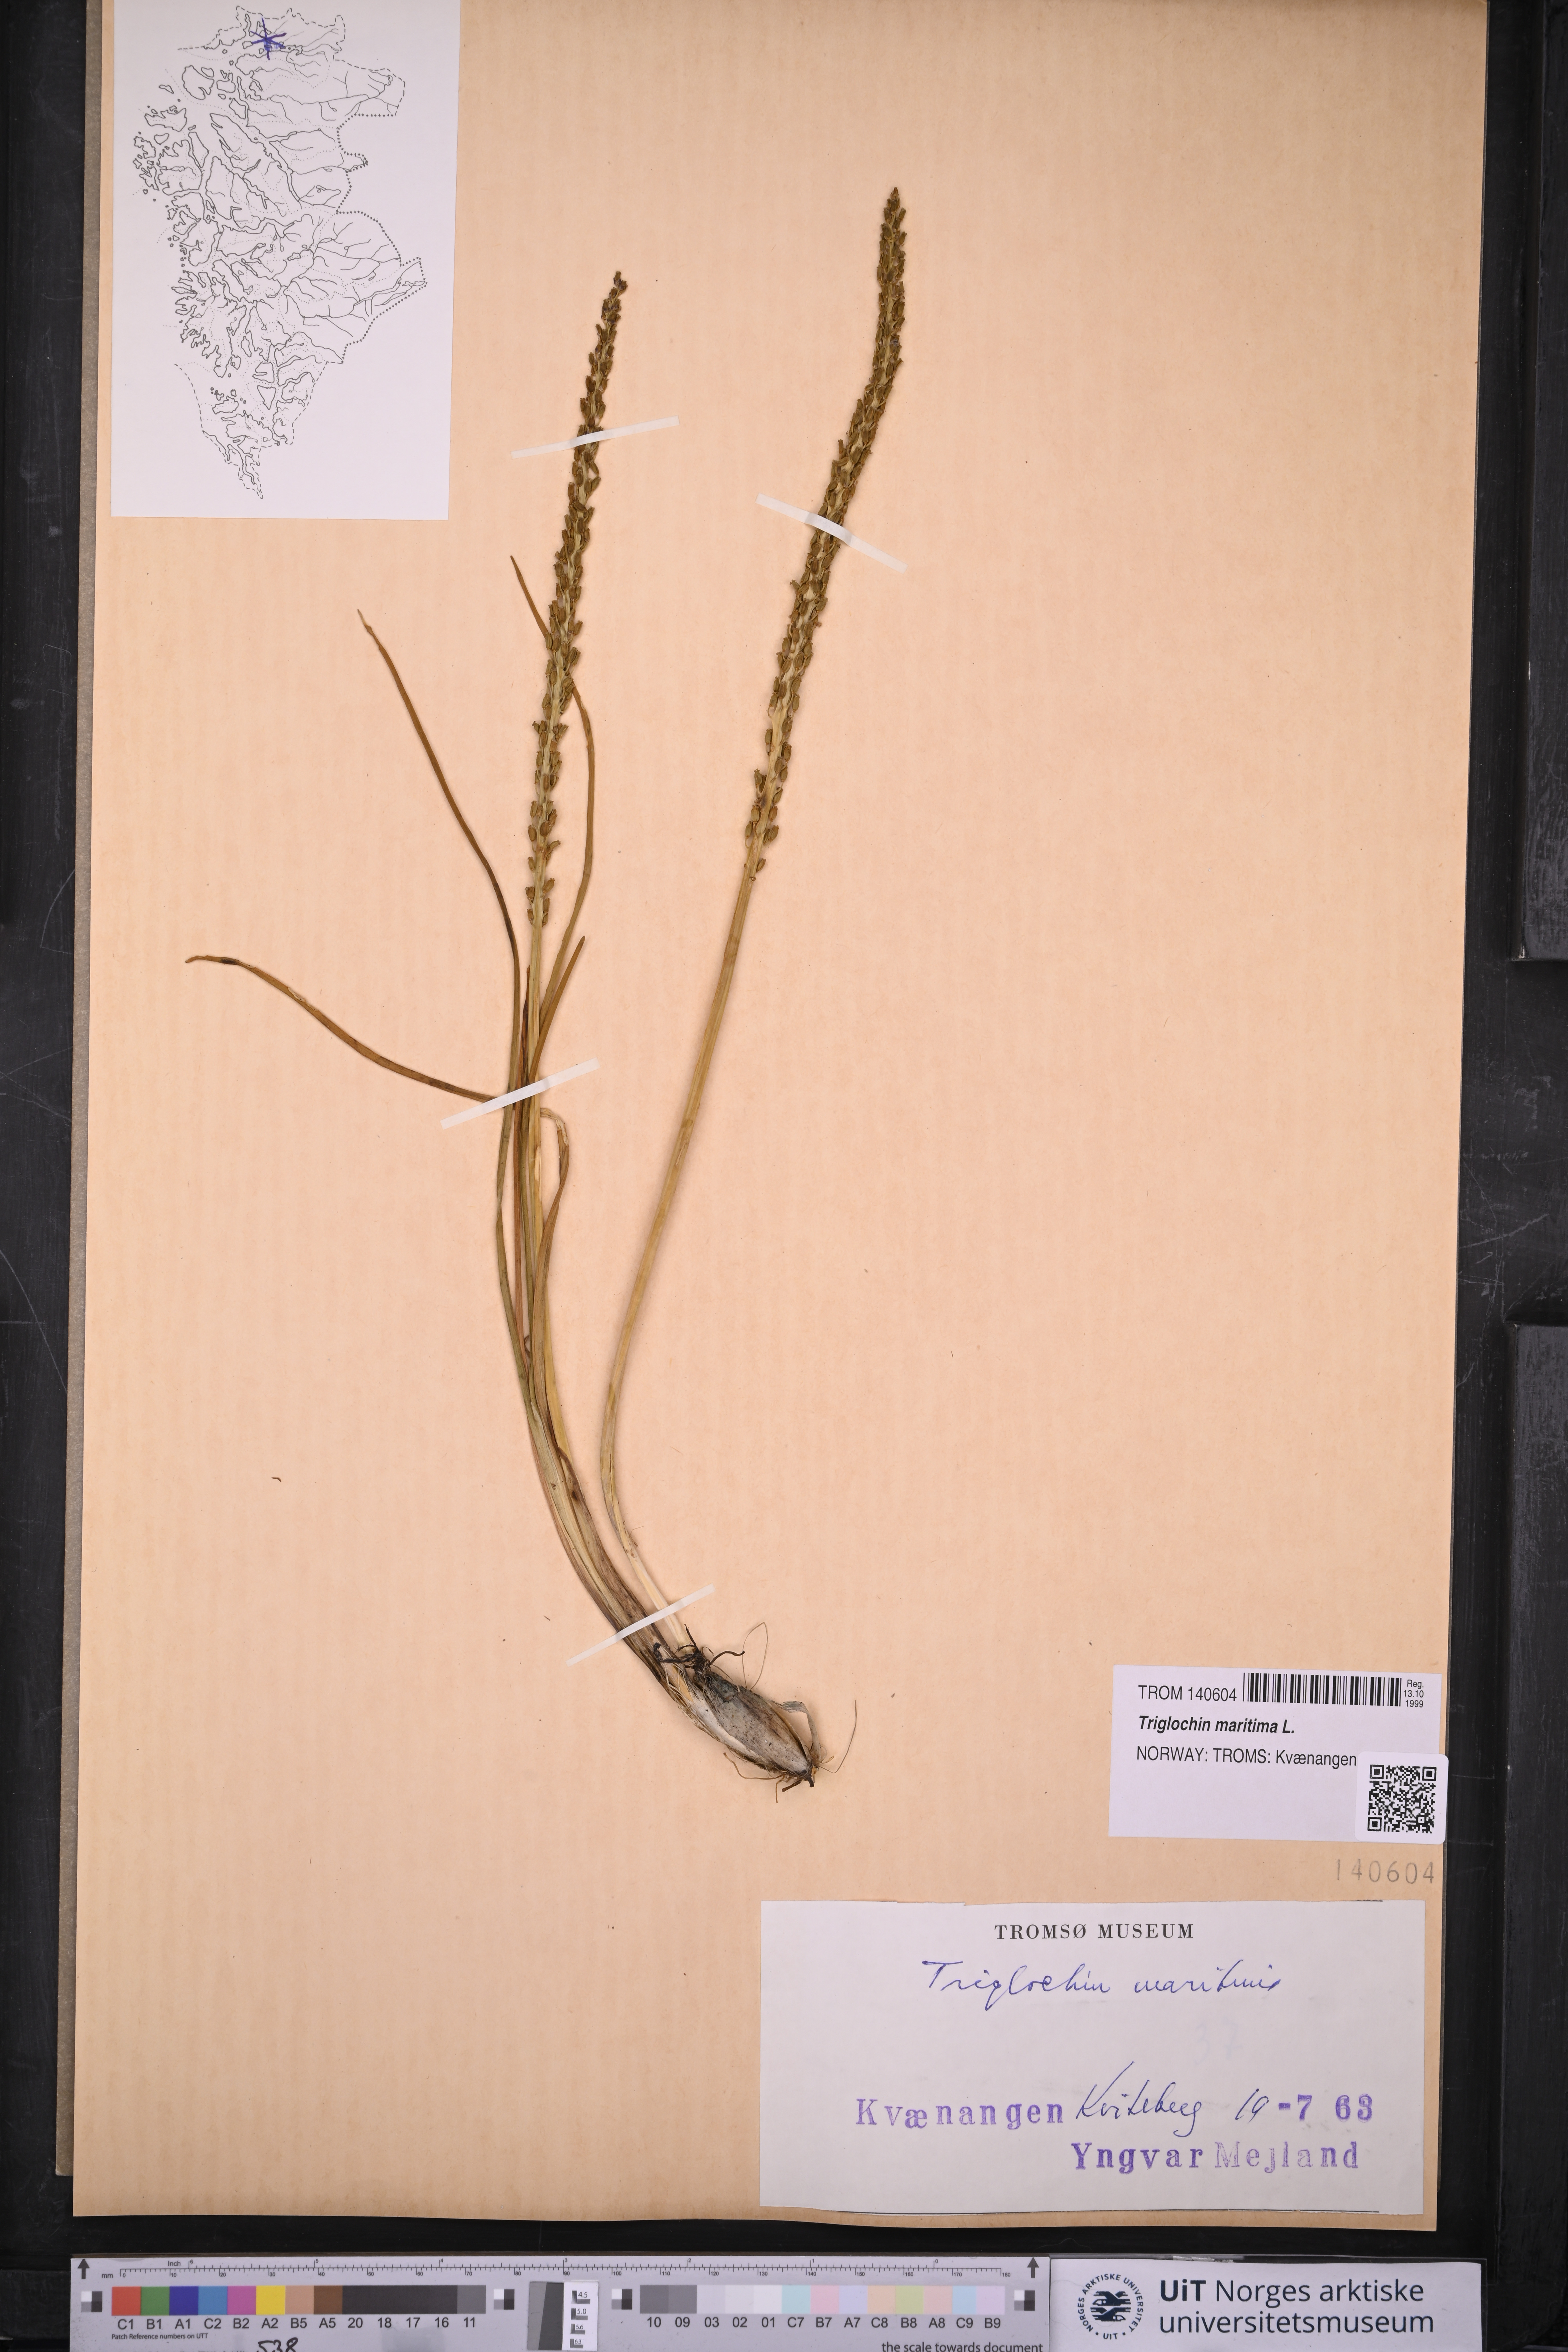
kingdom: Plantae
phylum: Tracheophyta
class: Liliopsida
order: Alismatales
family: Juncaginaceae
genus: Triglochin
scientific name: Triglochin maritima
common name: Sea arrowgrass
